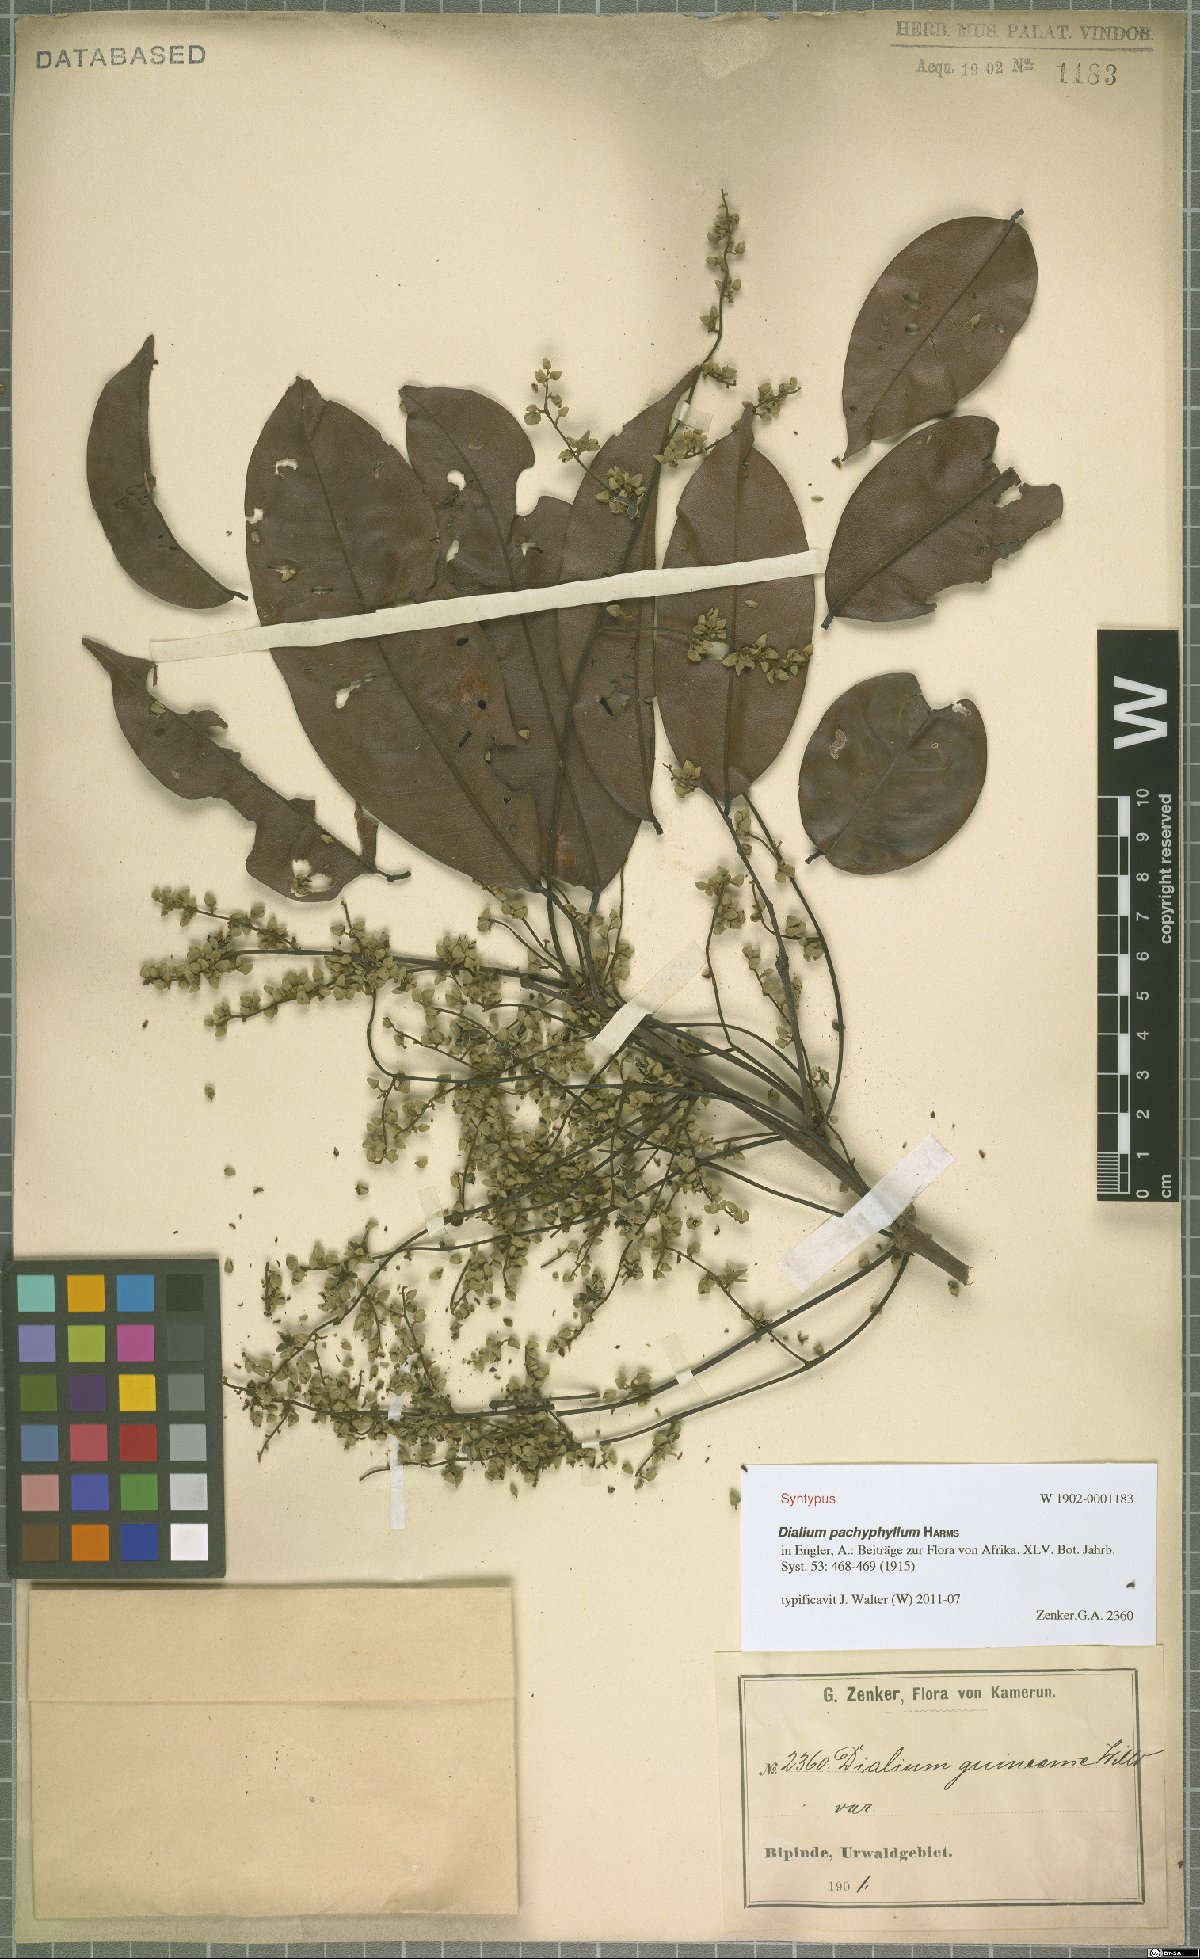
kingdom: Plantae
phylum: Tracheophyta
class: Magnoliopsida
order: Fabales
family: Fabaceae
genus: Dialium
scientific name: Dialium pachyphyllum
